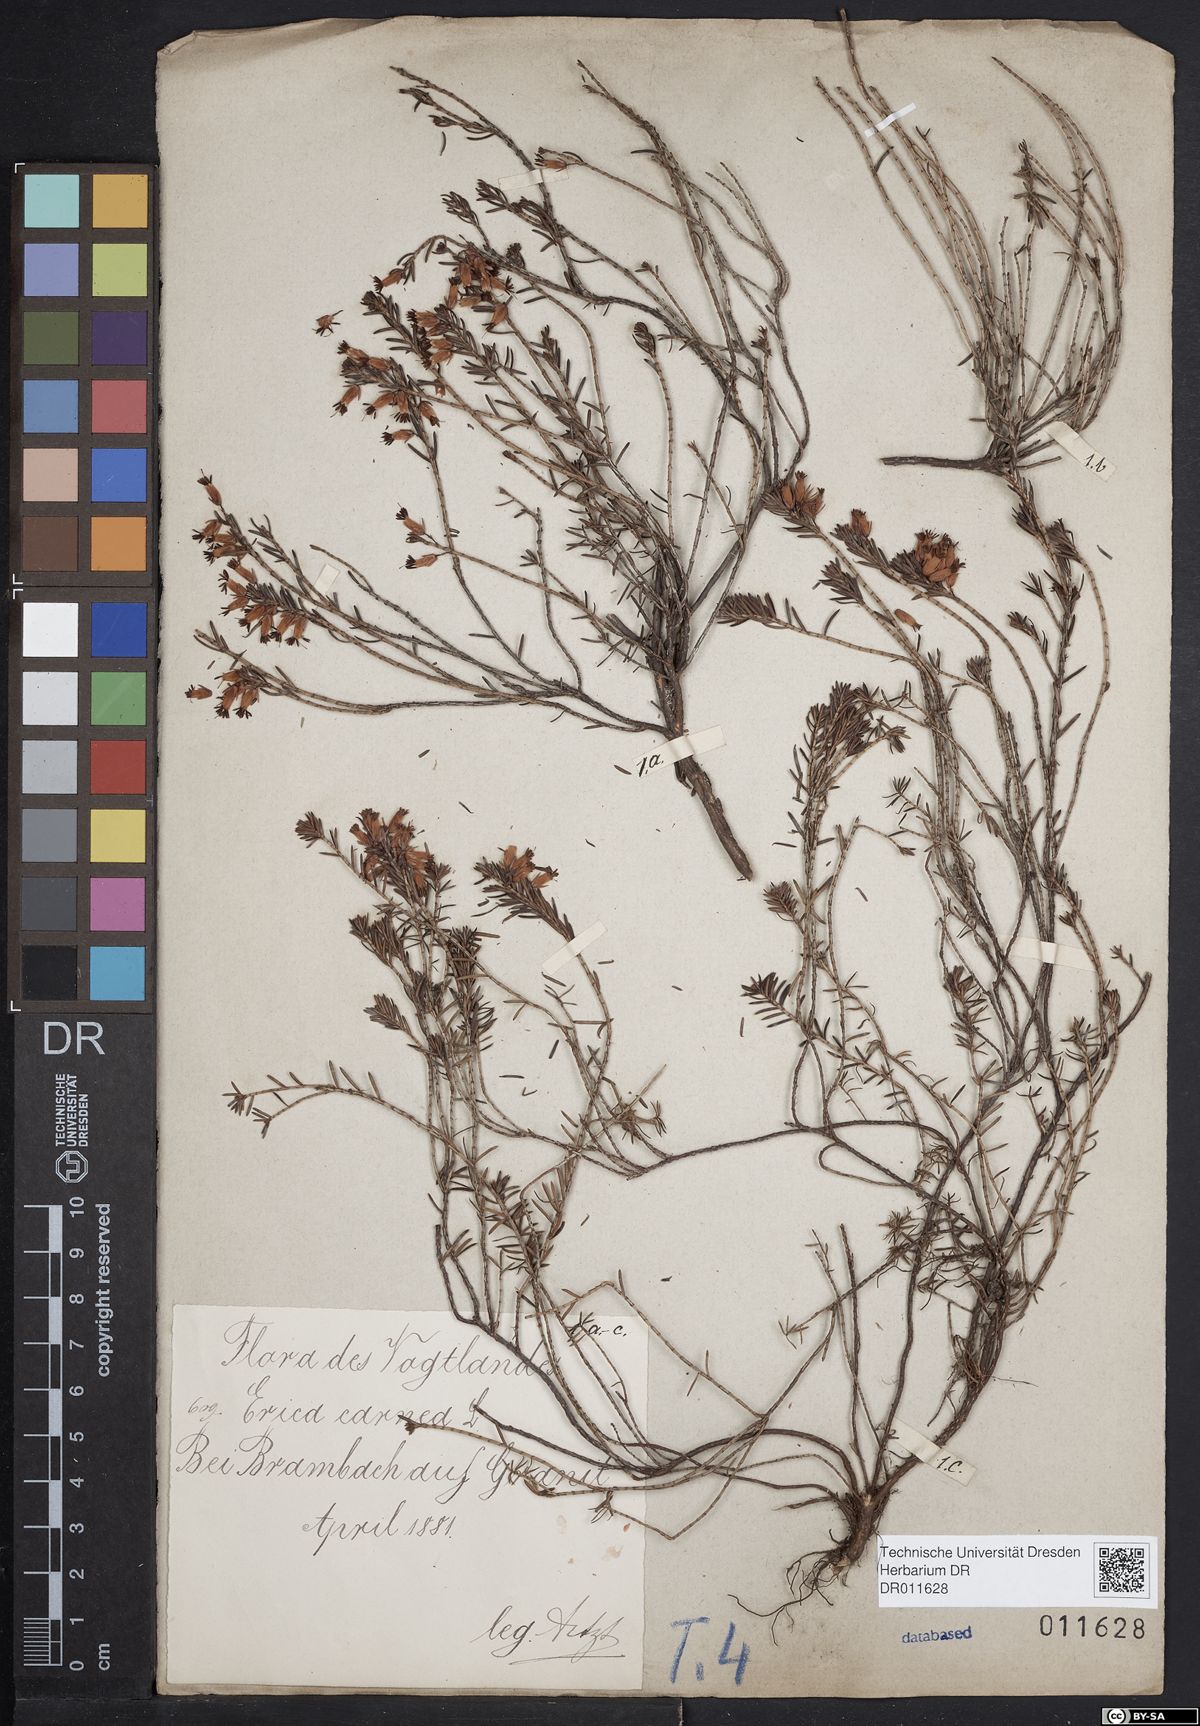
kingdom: Plantae
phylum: Tracheophyta
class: Magnoliopsida
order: Ericales
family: Ericaceae
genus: Erica
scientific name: Erica carnea
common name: Winter heath
